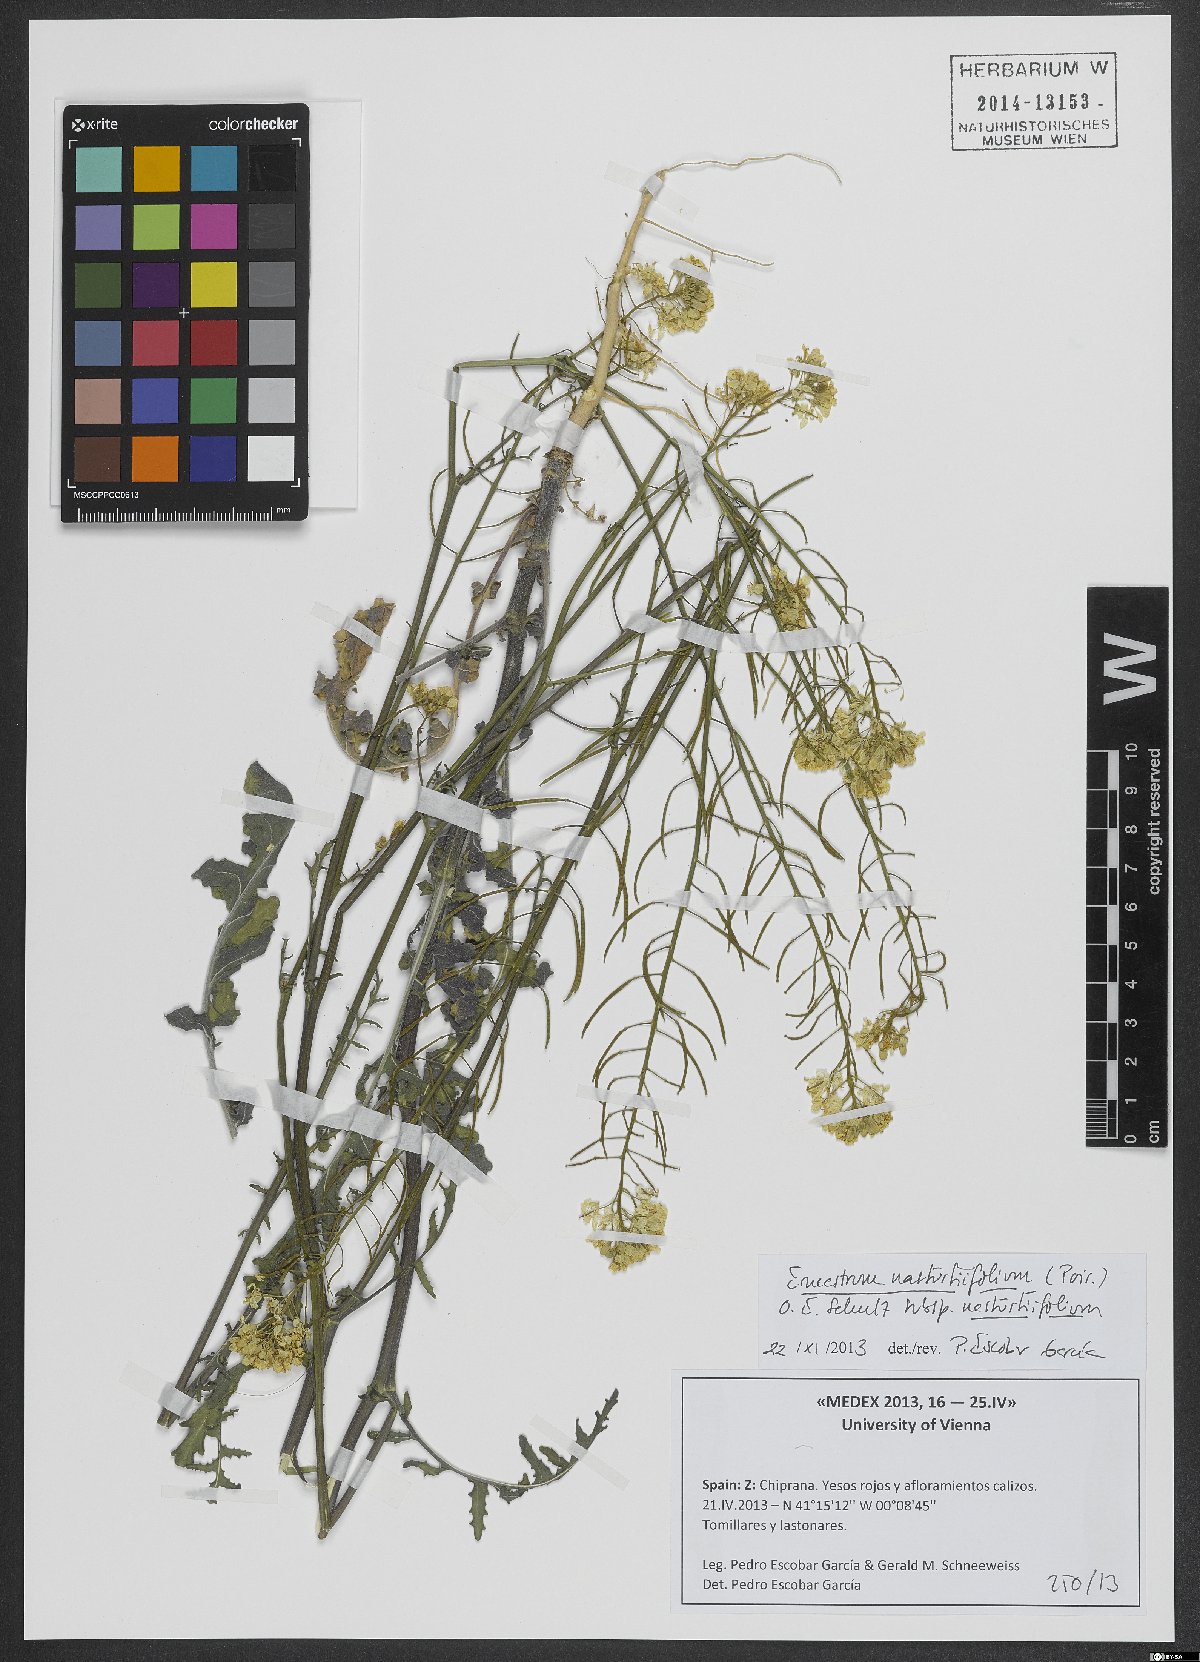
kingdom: Plantae
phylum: Tracheophyta
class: Magnoliopsida
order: Brassicales
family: Brassicaceae
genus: Erucastrum
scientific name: Erucastrum nasturtiifolium
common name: Watercress-leaf rocket
